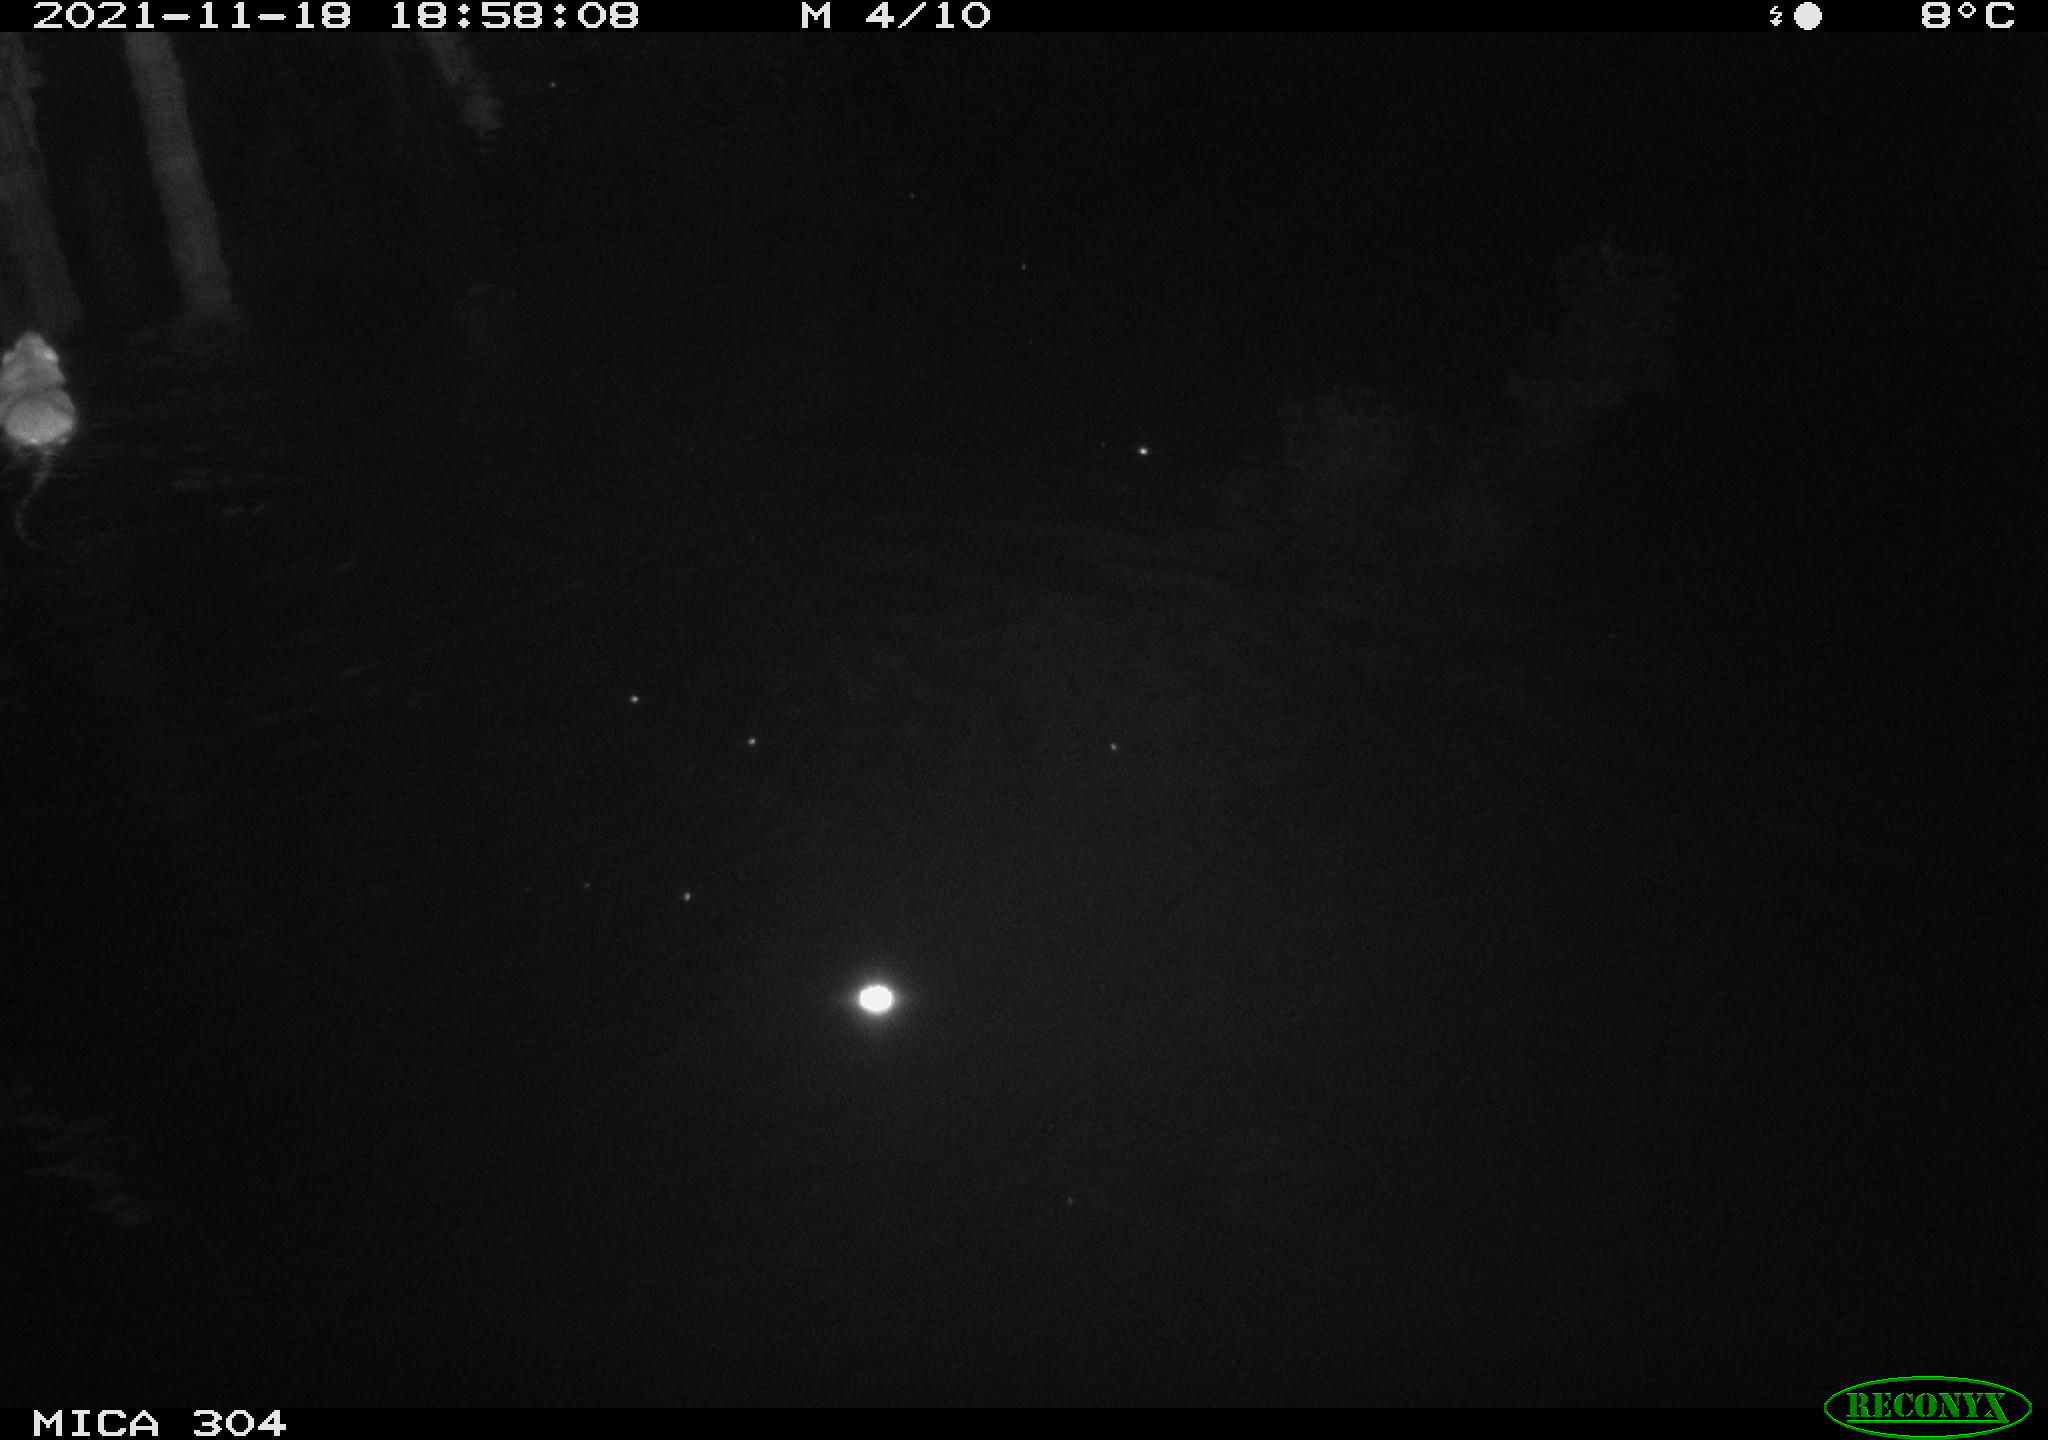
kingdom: Animalia
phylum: Chordata
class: Mammalia
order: Rodentia
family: Muridae
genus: Rattus
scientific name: Rattus norvegicus
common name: Brown rat
